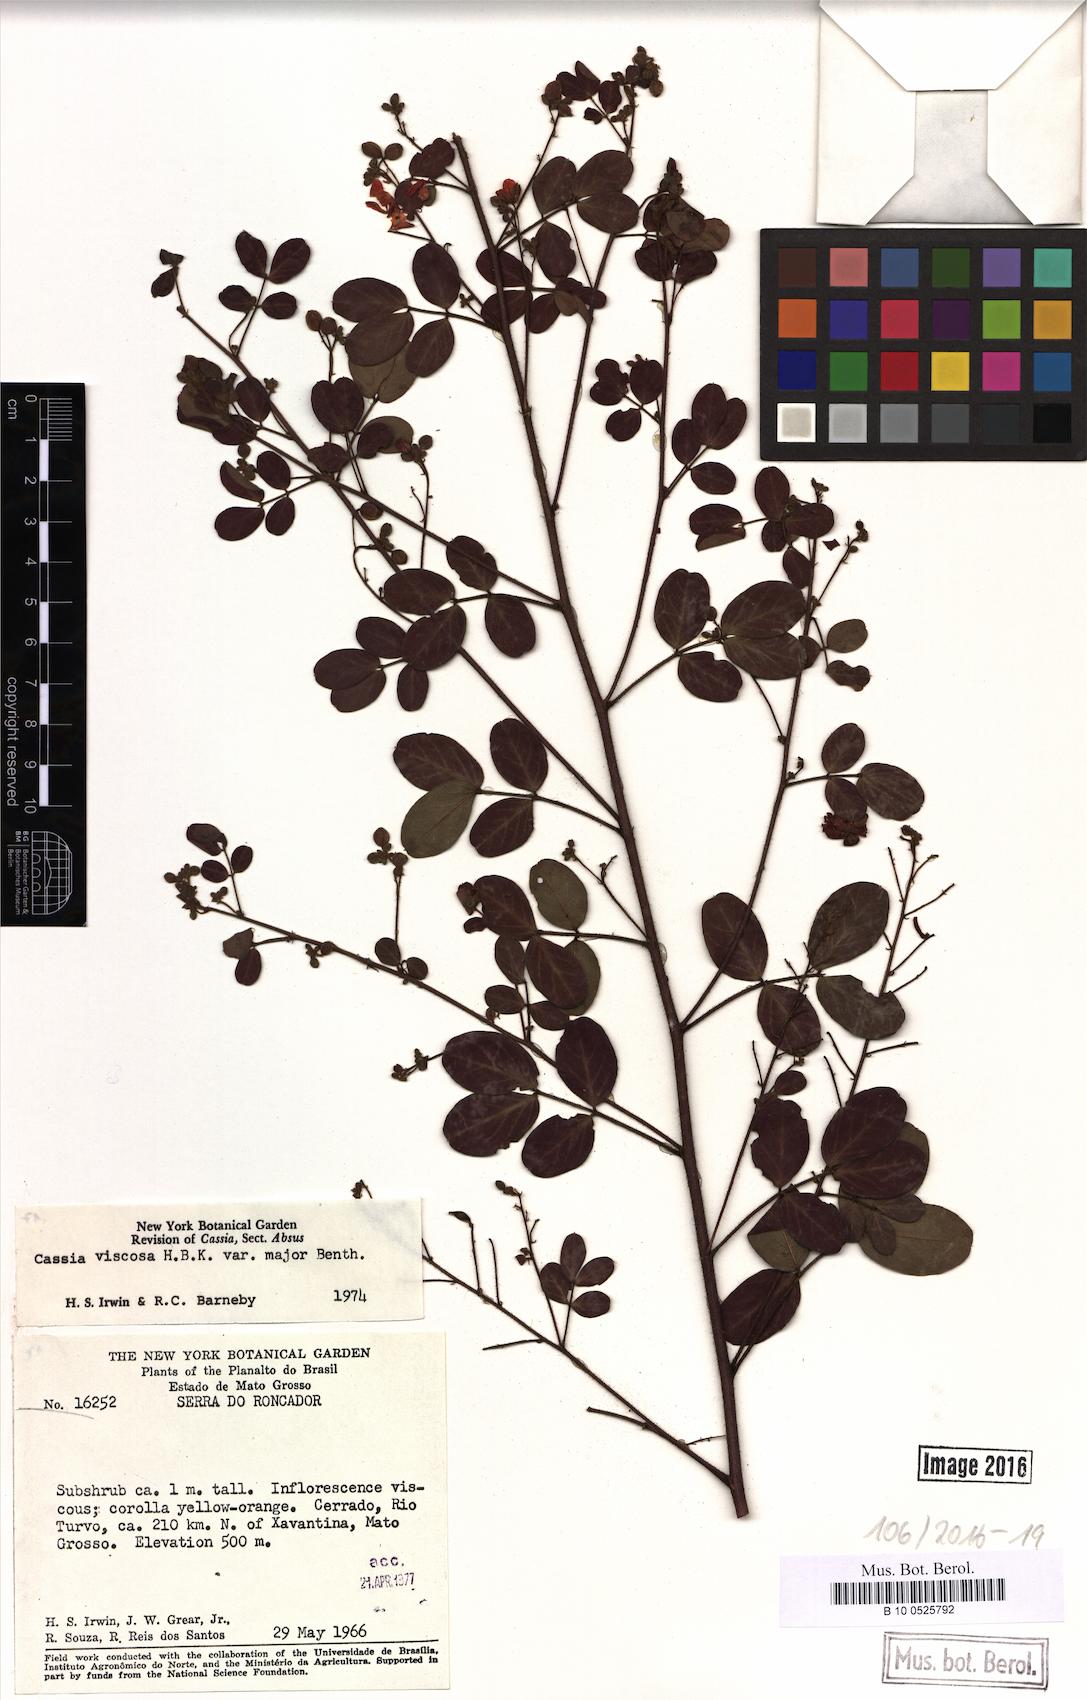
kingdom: Plantae
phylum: Tracheophyta
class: Magnoliopsida
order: Fabales
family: Fabaceae
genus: Chamaecrista
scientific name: Chamaecrista viscosa
